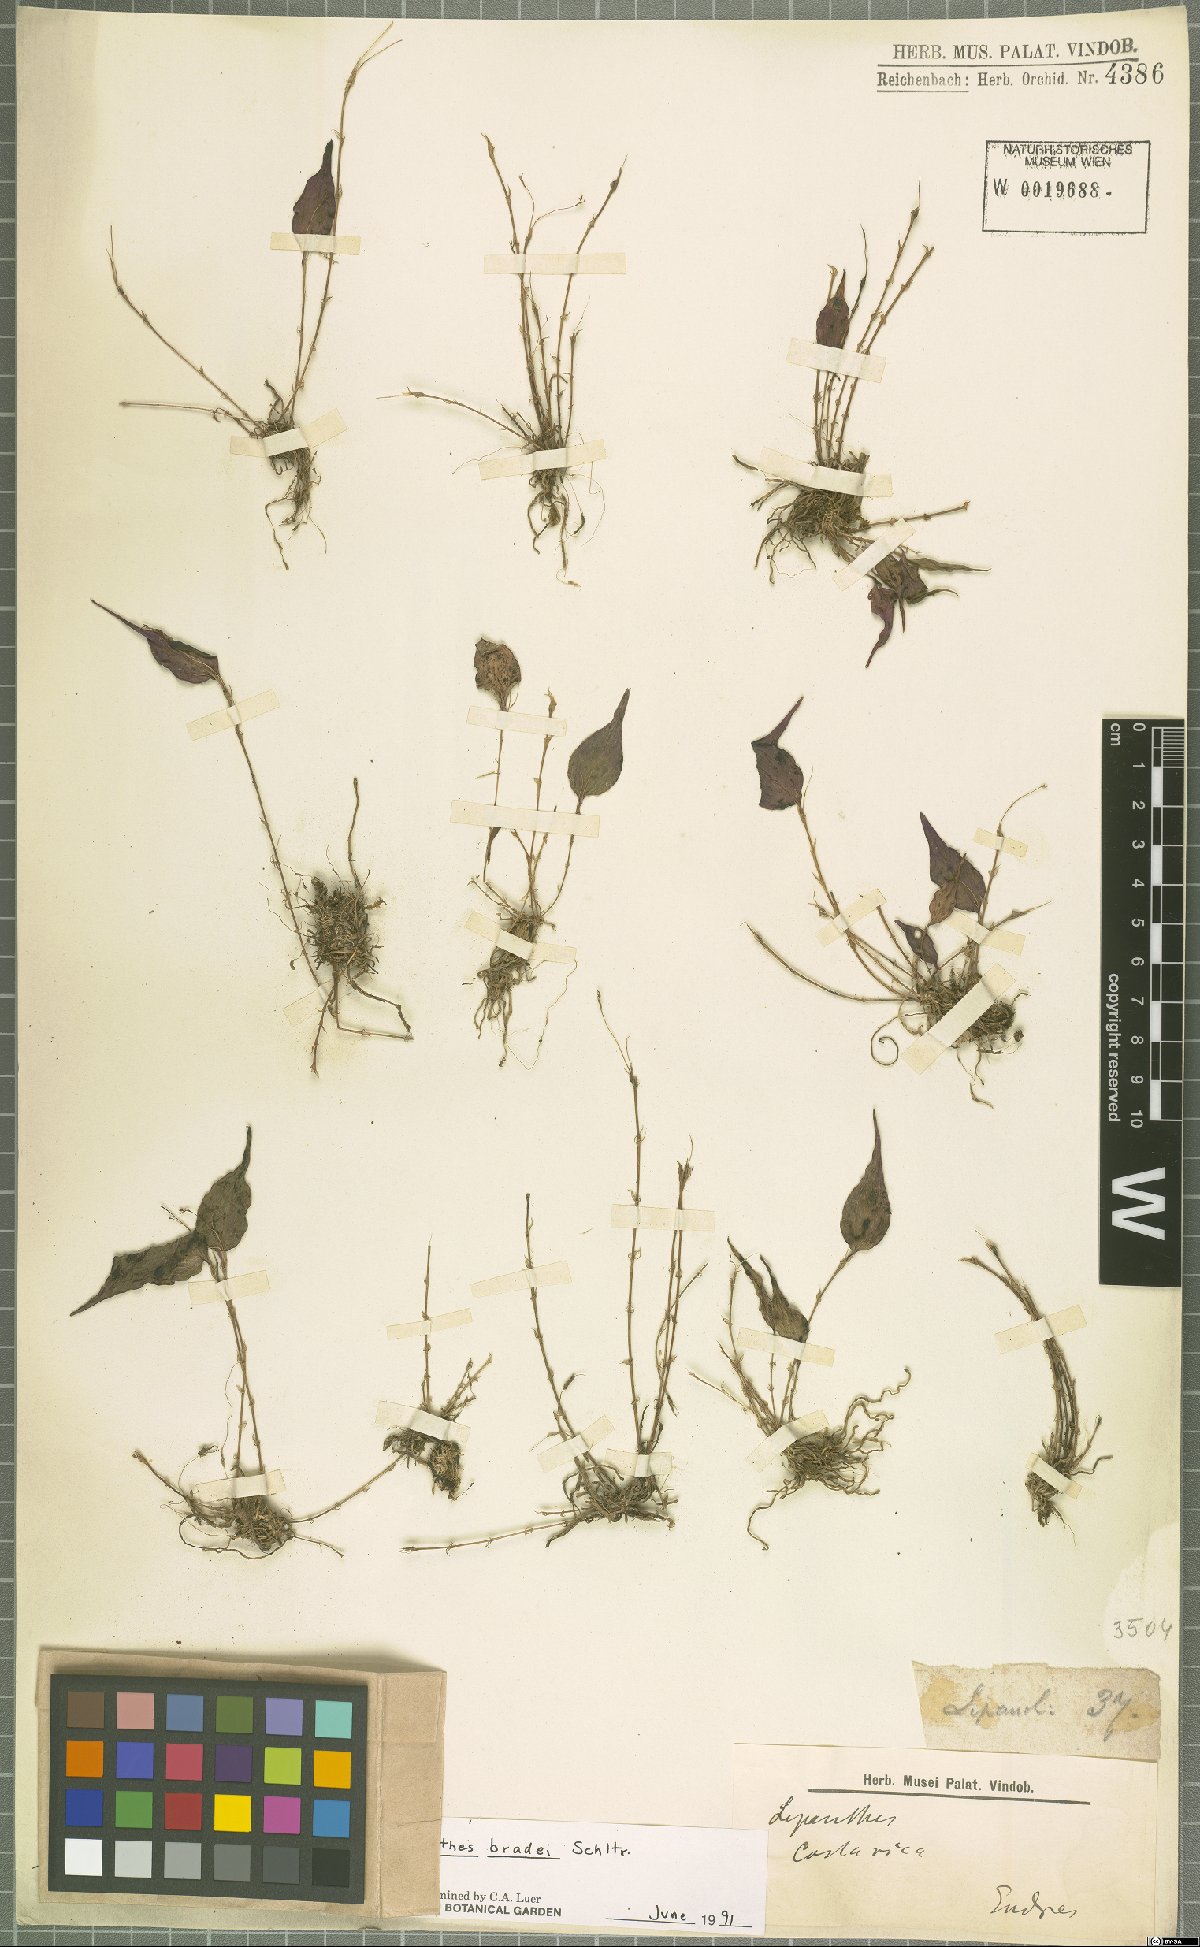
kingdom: Plantae
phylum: Tracheophyta
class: Liliopsida
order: Asparagales
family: Orchidaceae
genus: Lepanthes
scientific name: Lepanthes bradei
